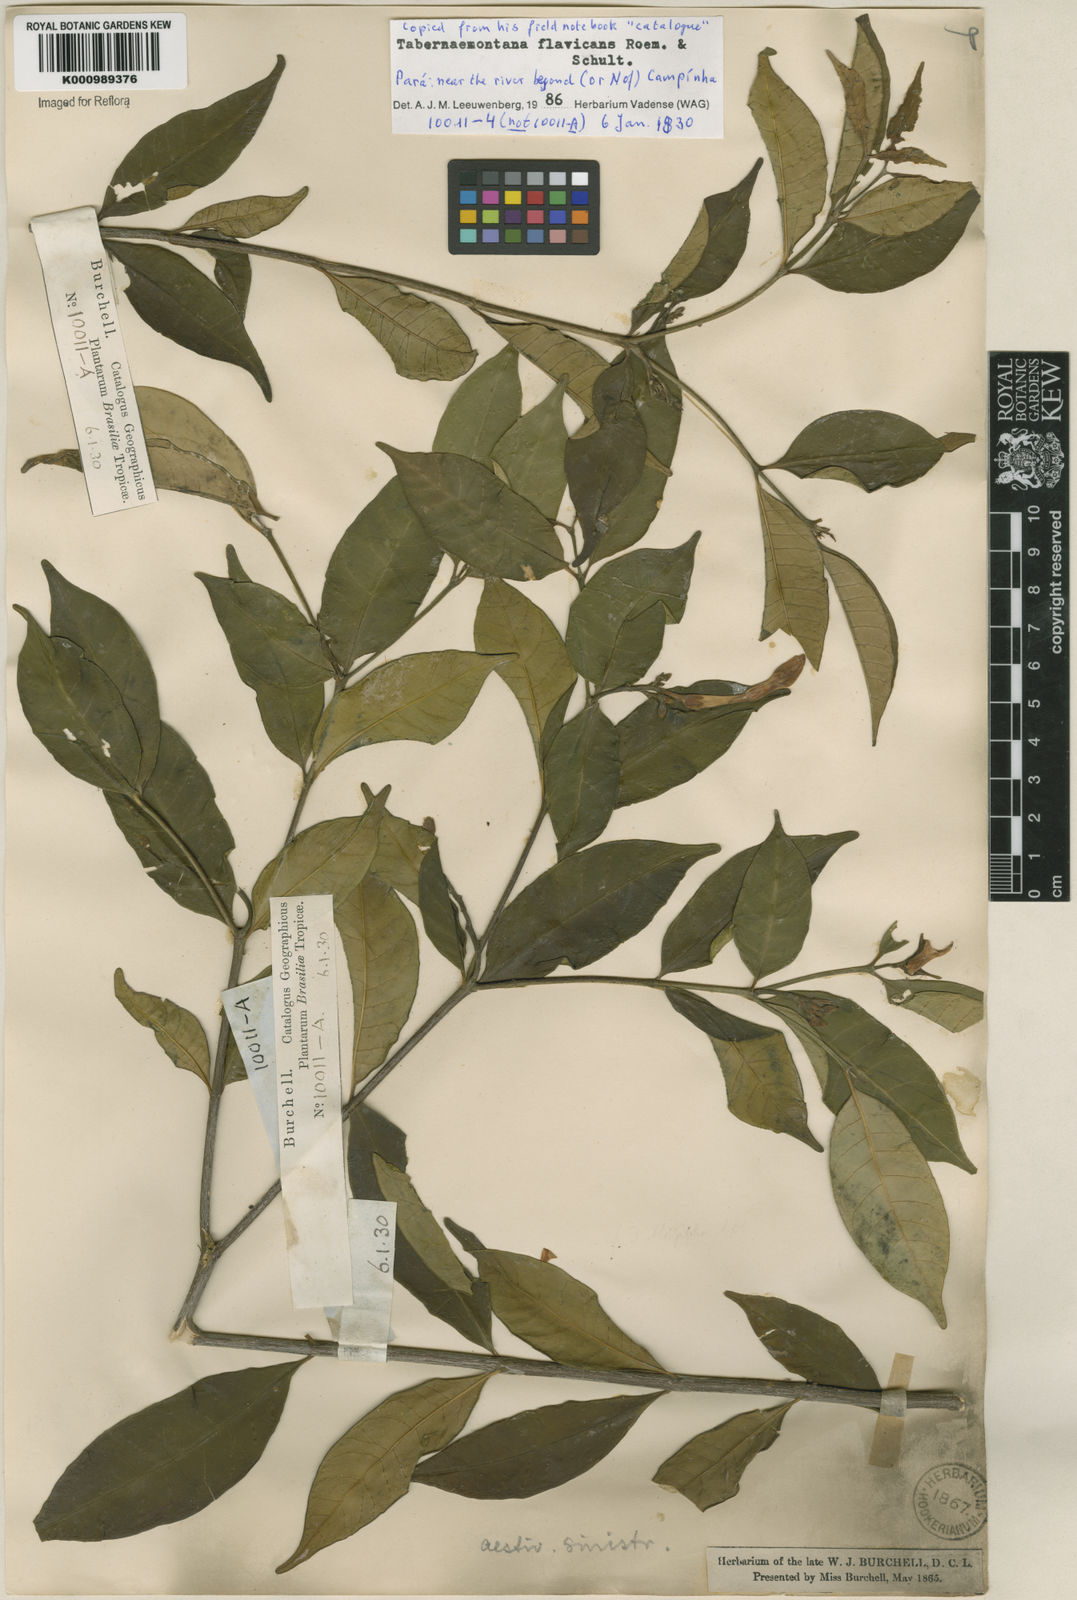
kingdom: Plantae
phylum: Tracheophyta
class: Magnoliopsida
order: Gentianales
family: Apocynaceae
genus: Tabernaemontana
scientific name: Tabernaemontana flavicans
